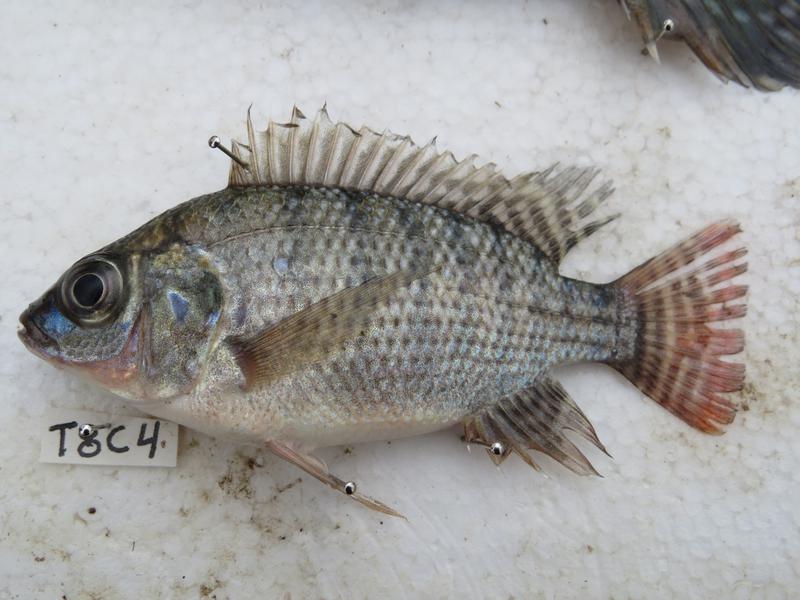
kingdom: Animalia
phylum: Chordata
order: Perciformes
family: Cichlidae
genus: Oreochromis
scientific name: Oreochromis niloticus
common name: Nile tilapia
